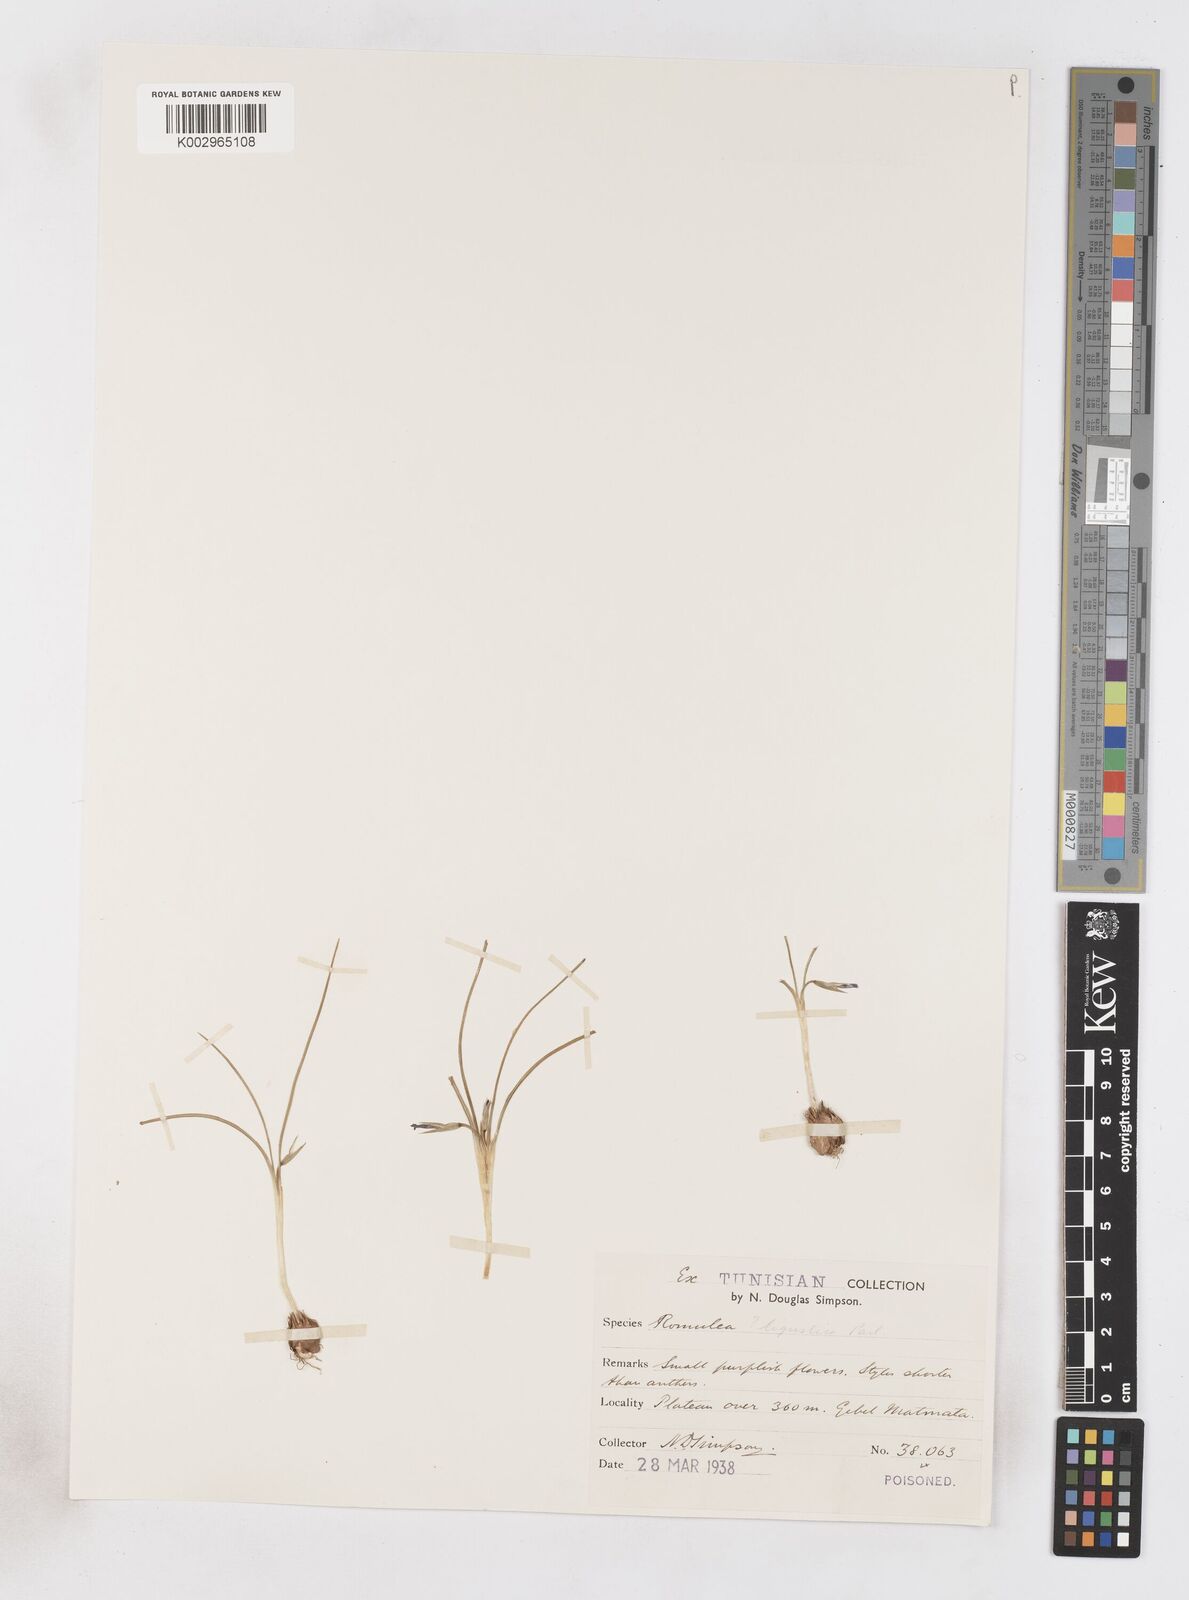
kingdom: Plantae
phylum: Tracheophyta
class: Liliopsida
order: Asparagales
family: Iridaceae
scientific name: Iridaceae
